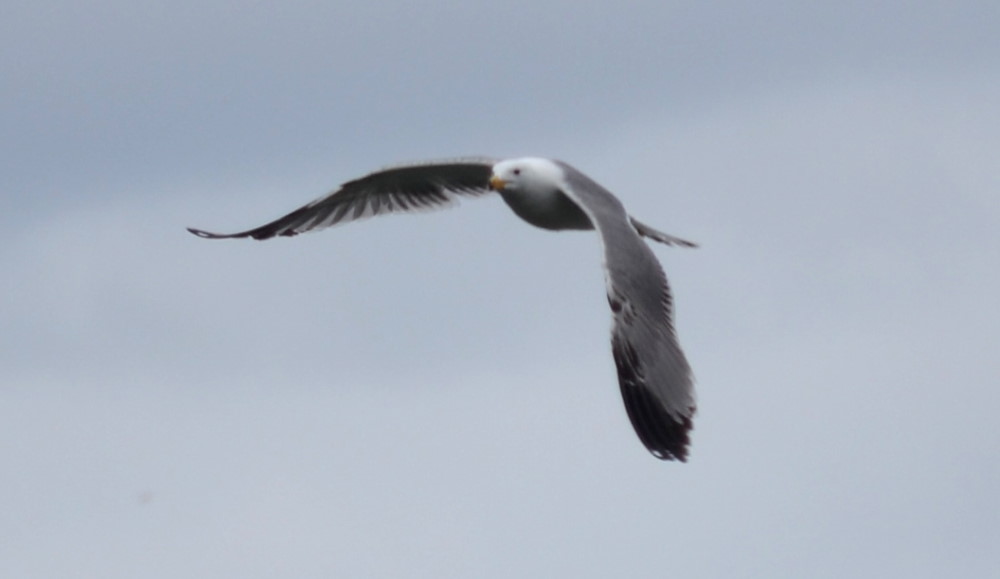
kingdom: Animalia
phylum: Chordata
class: Aves
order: Charadriiformes
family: Laridae
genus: Larus
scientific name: Larus armenicus
